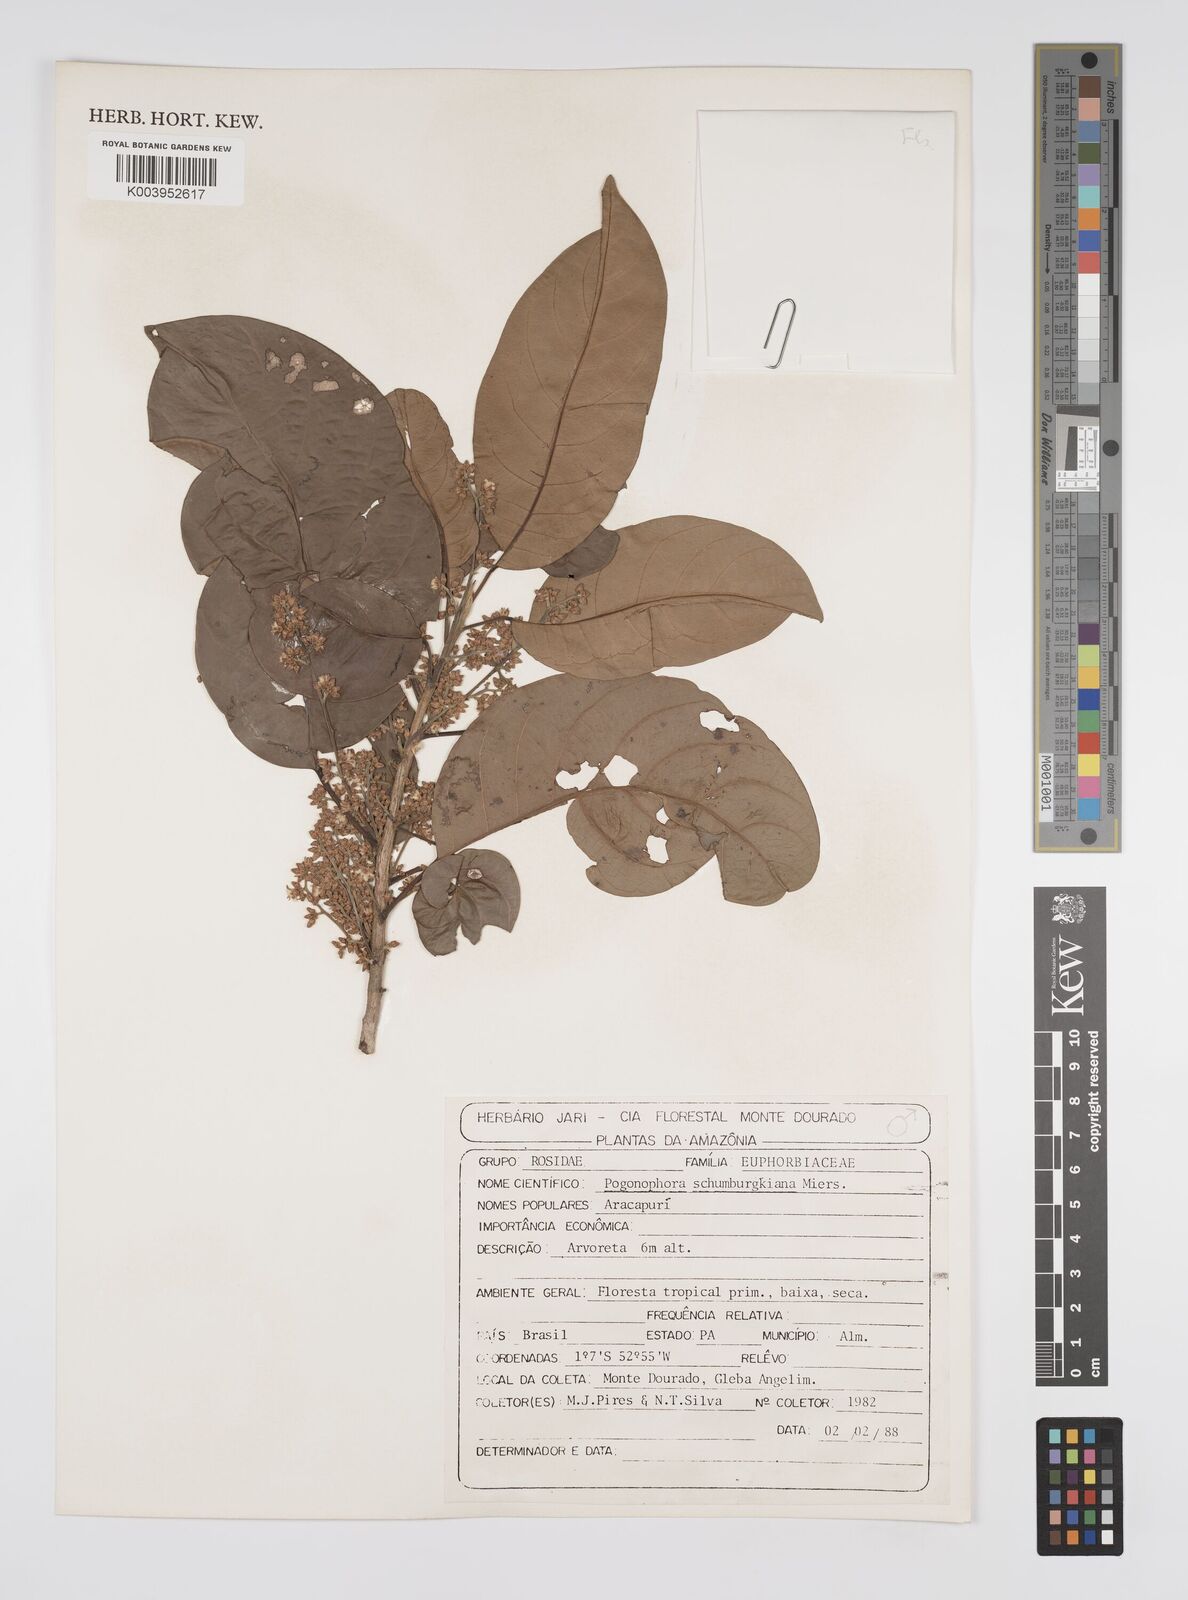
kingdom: Plantae
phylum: Tracheophyta
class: Magnoliopsida
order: Malpighiales
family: Peraceae
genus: Pogonophora
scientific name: Pogonophora schomburgkiana
